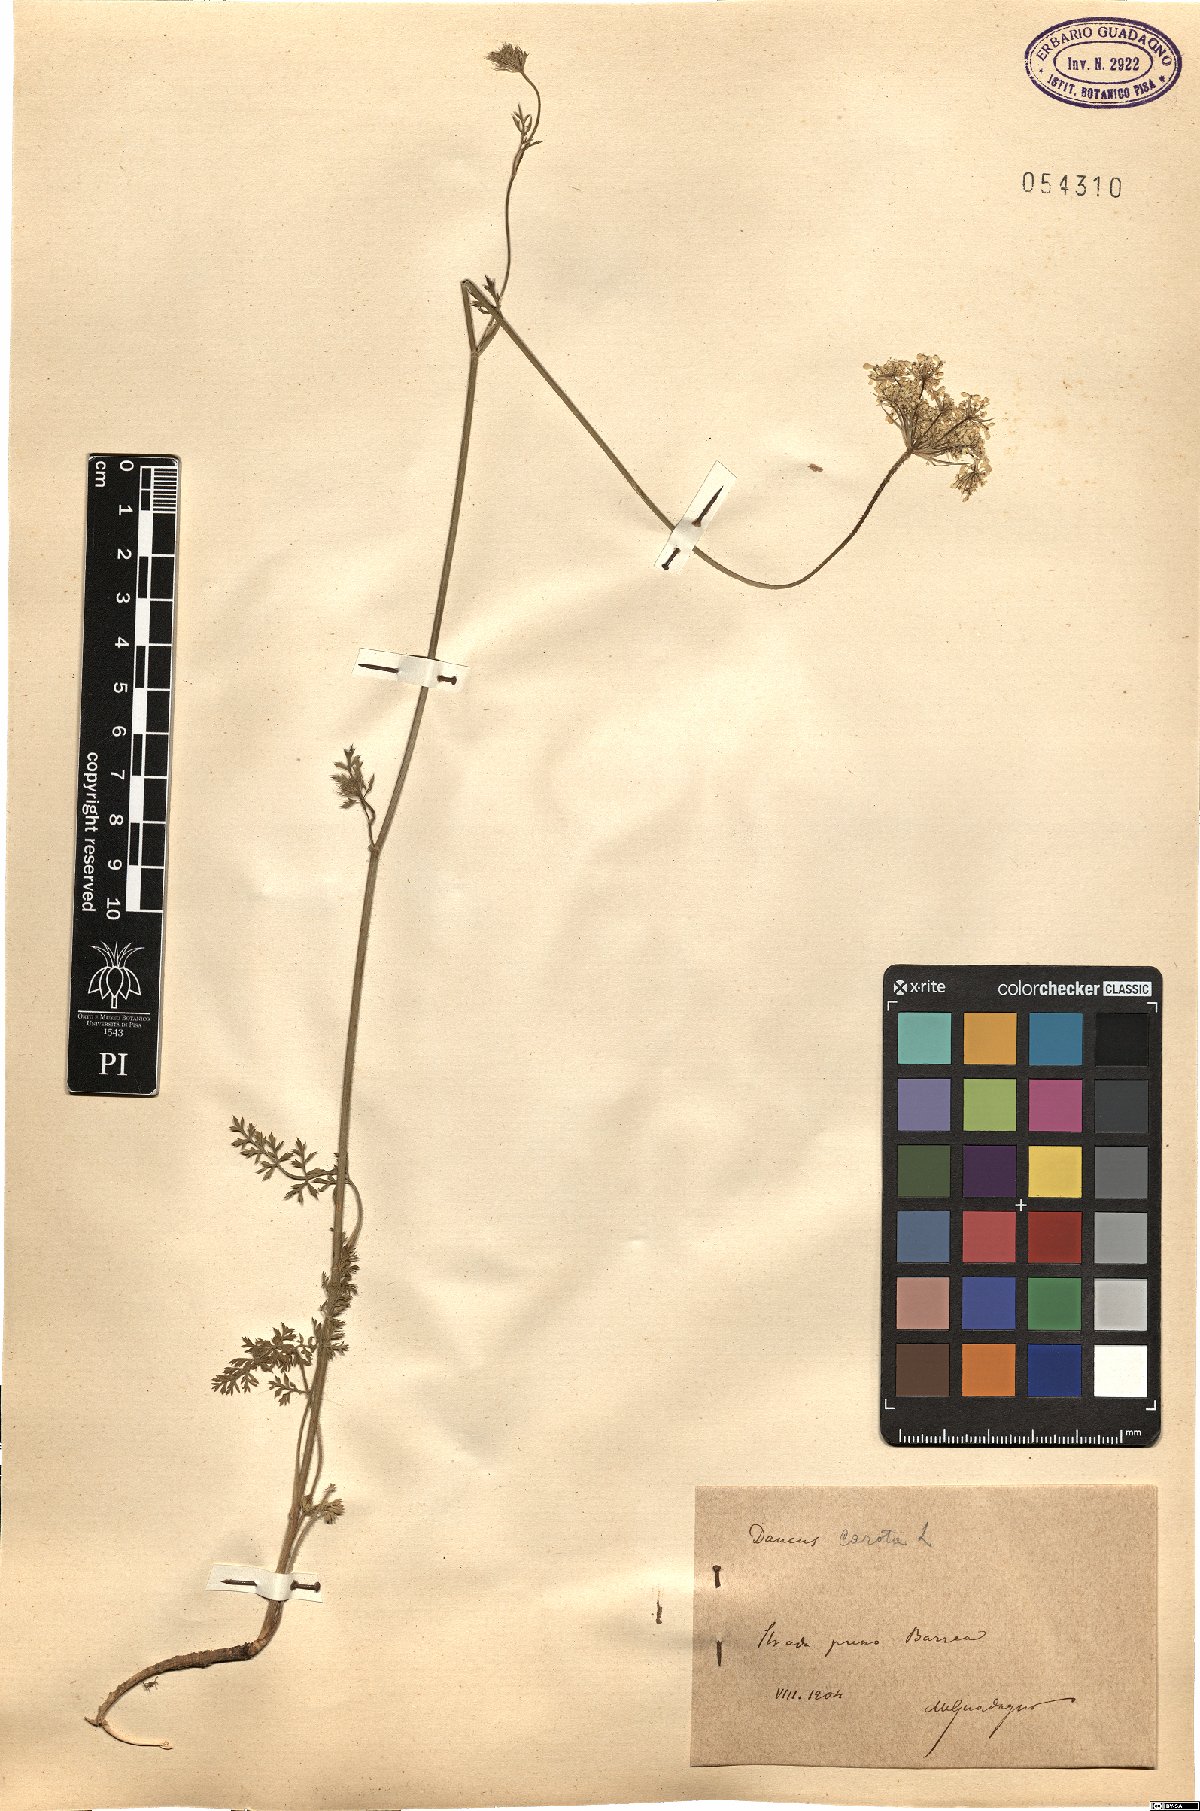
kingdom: Plantae
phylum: Tracheophyta
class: Magnoliopsida
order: Apiales
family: Apiaceae
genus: Daucus
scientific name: Daucus carota
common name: Wild carrot
